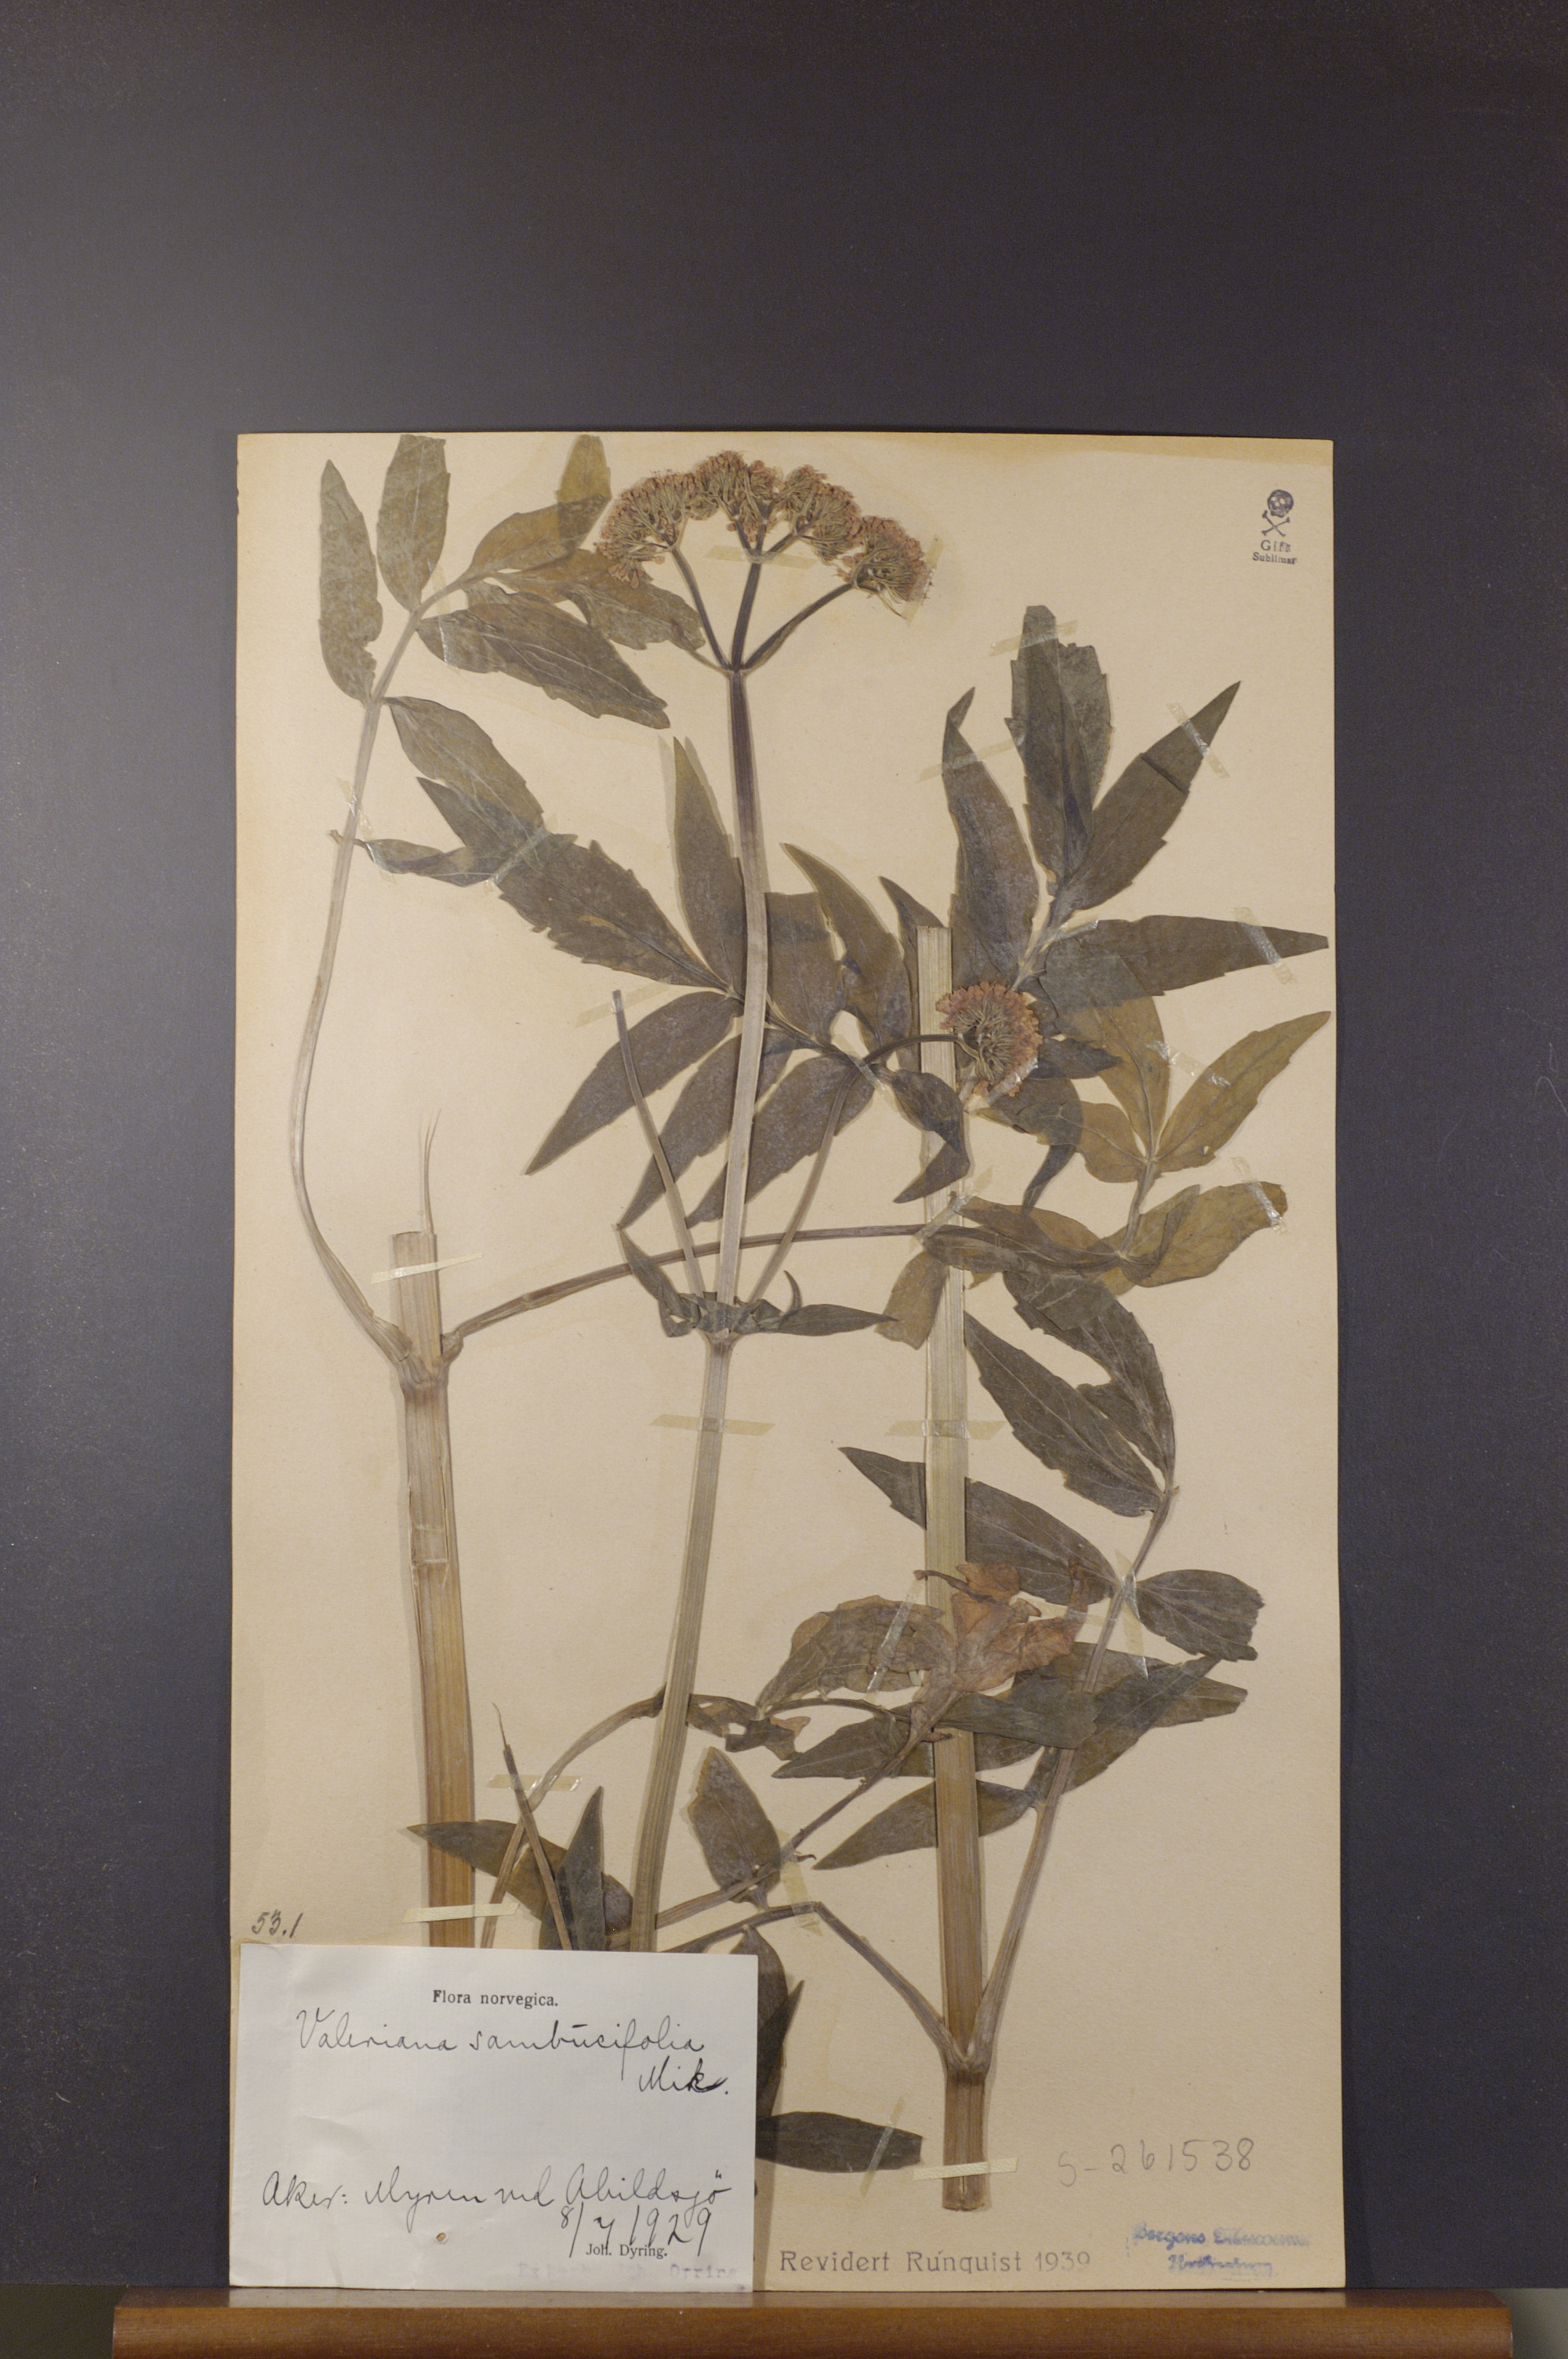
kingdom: Plantae
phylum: Tracheophyta
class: Magnoliopsida
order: Dipsacales
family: Caprifoliaceae
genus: Valeriana
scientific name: Valeriana excelsa
